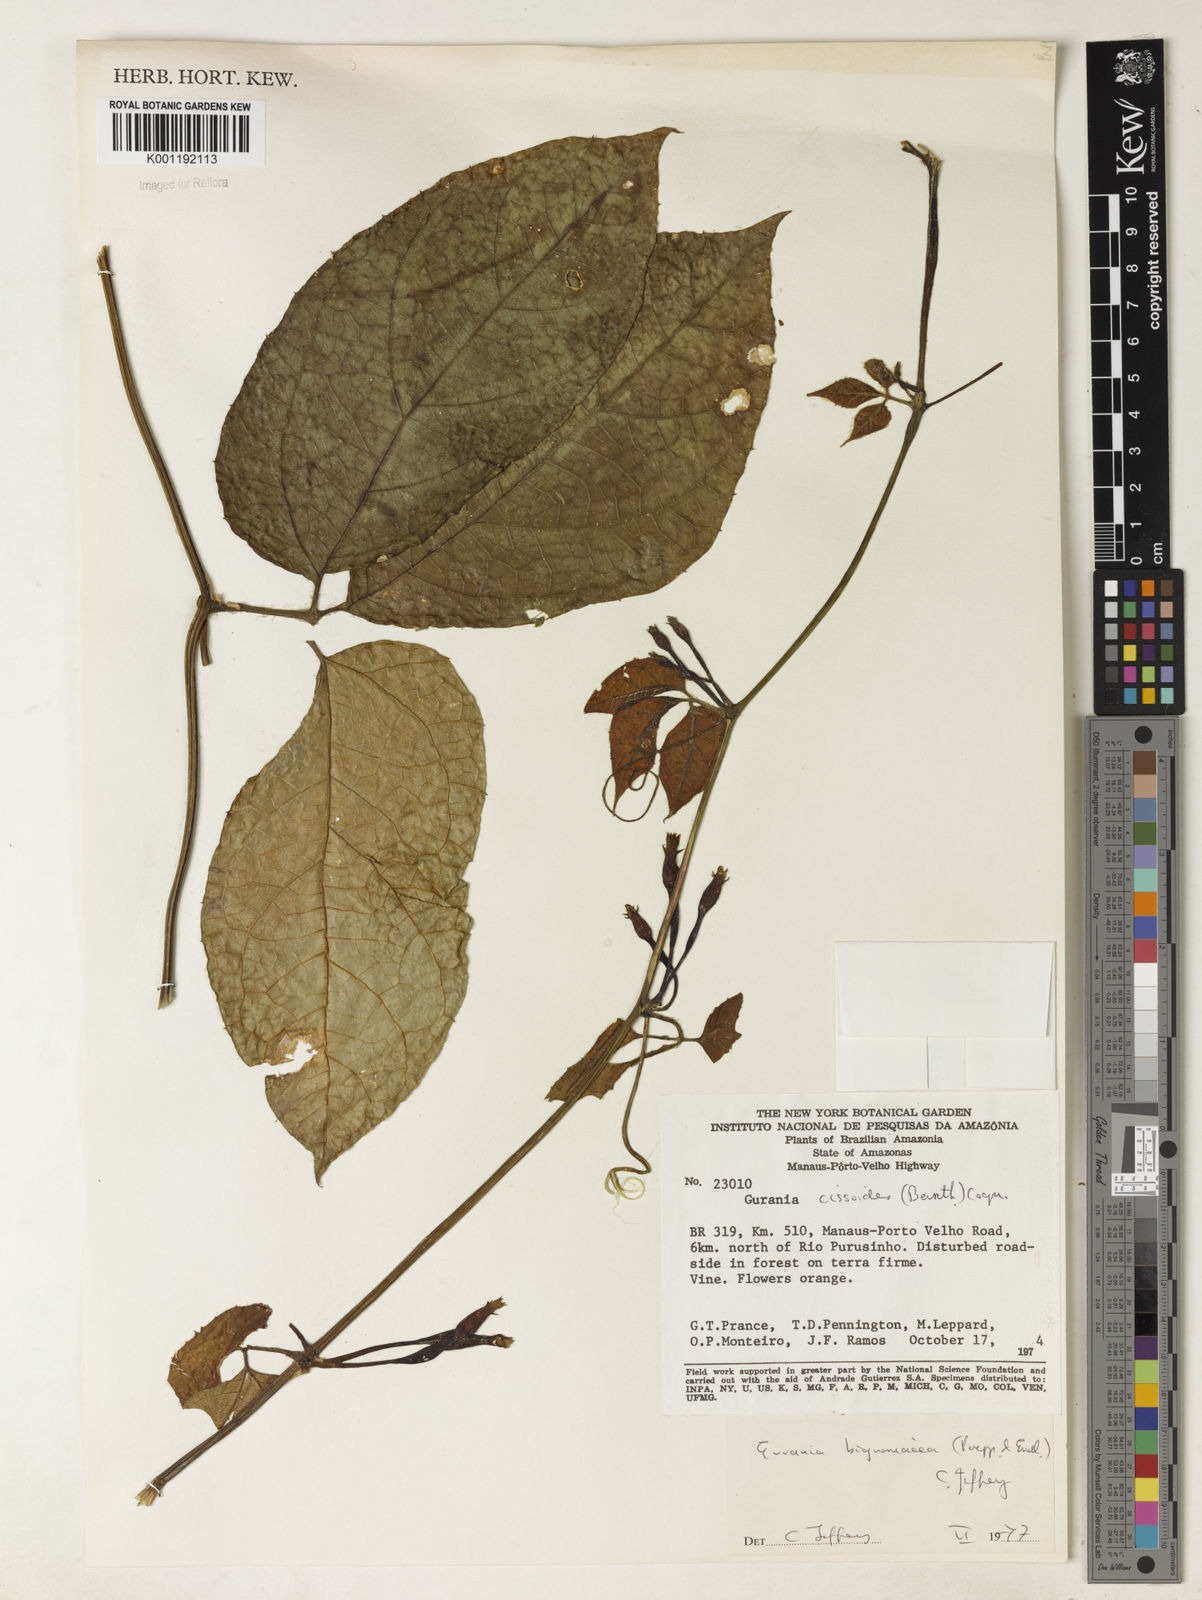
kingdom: Plantae
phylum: Tracheophyta
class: Magnoliopsida
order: Cucurbitales
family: Cucurbitaceae
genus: Gurania
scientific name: Gurania bignoniacea
